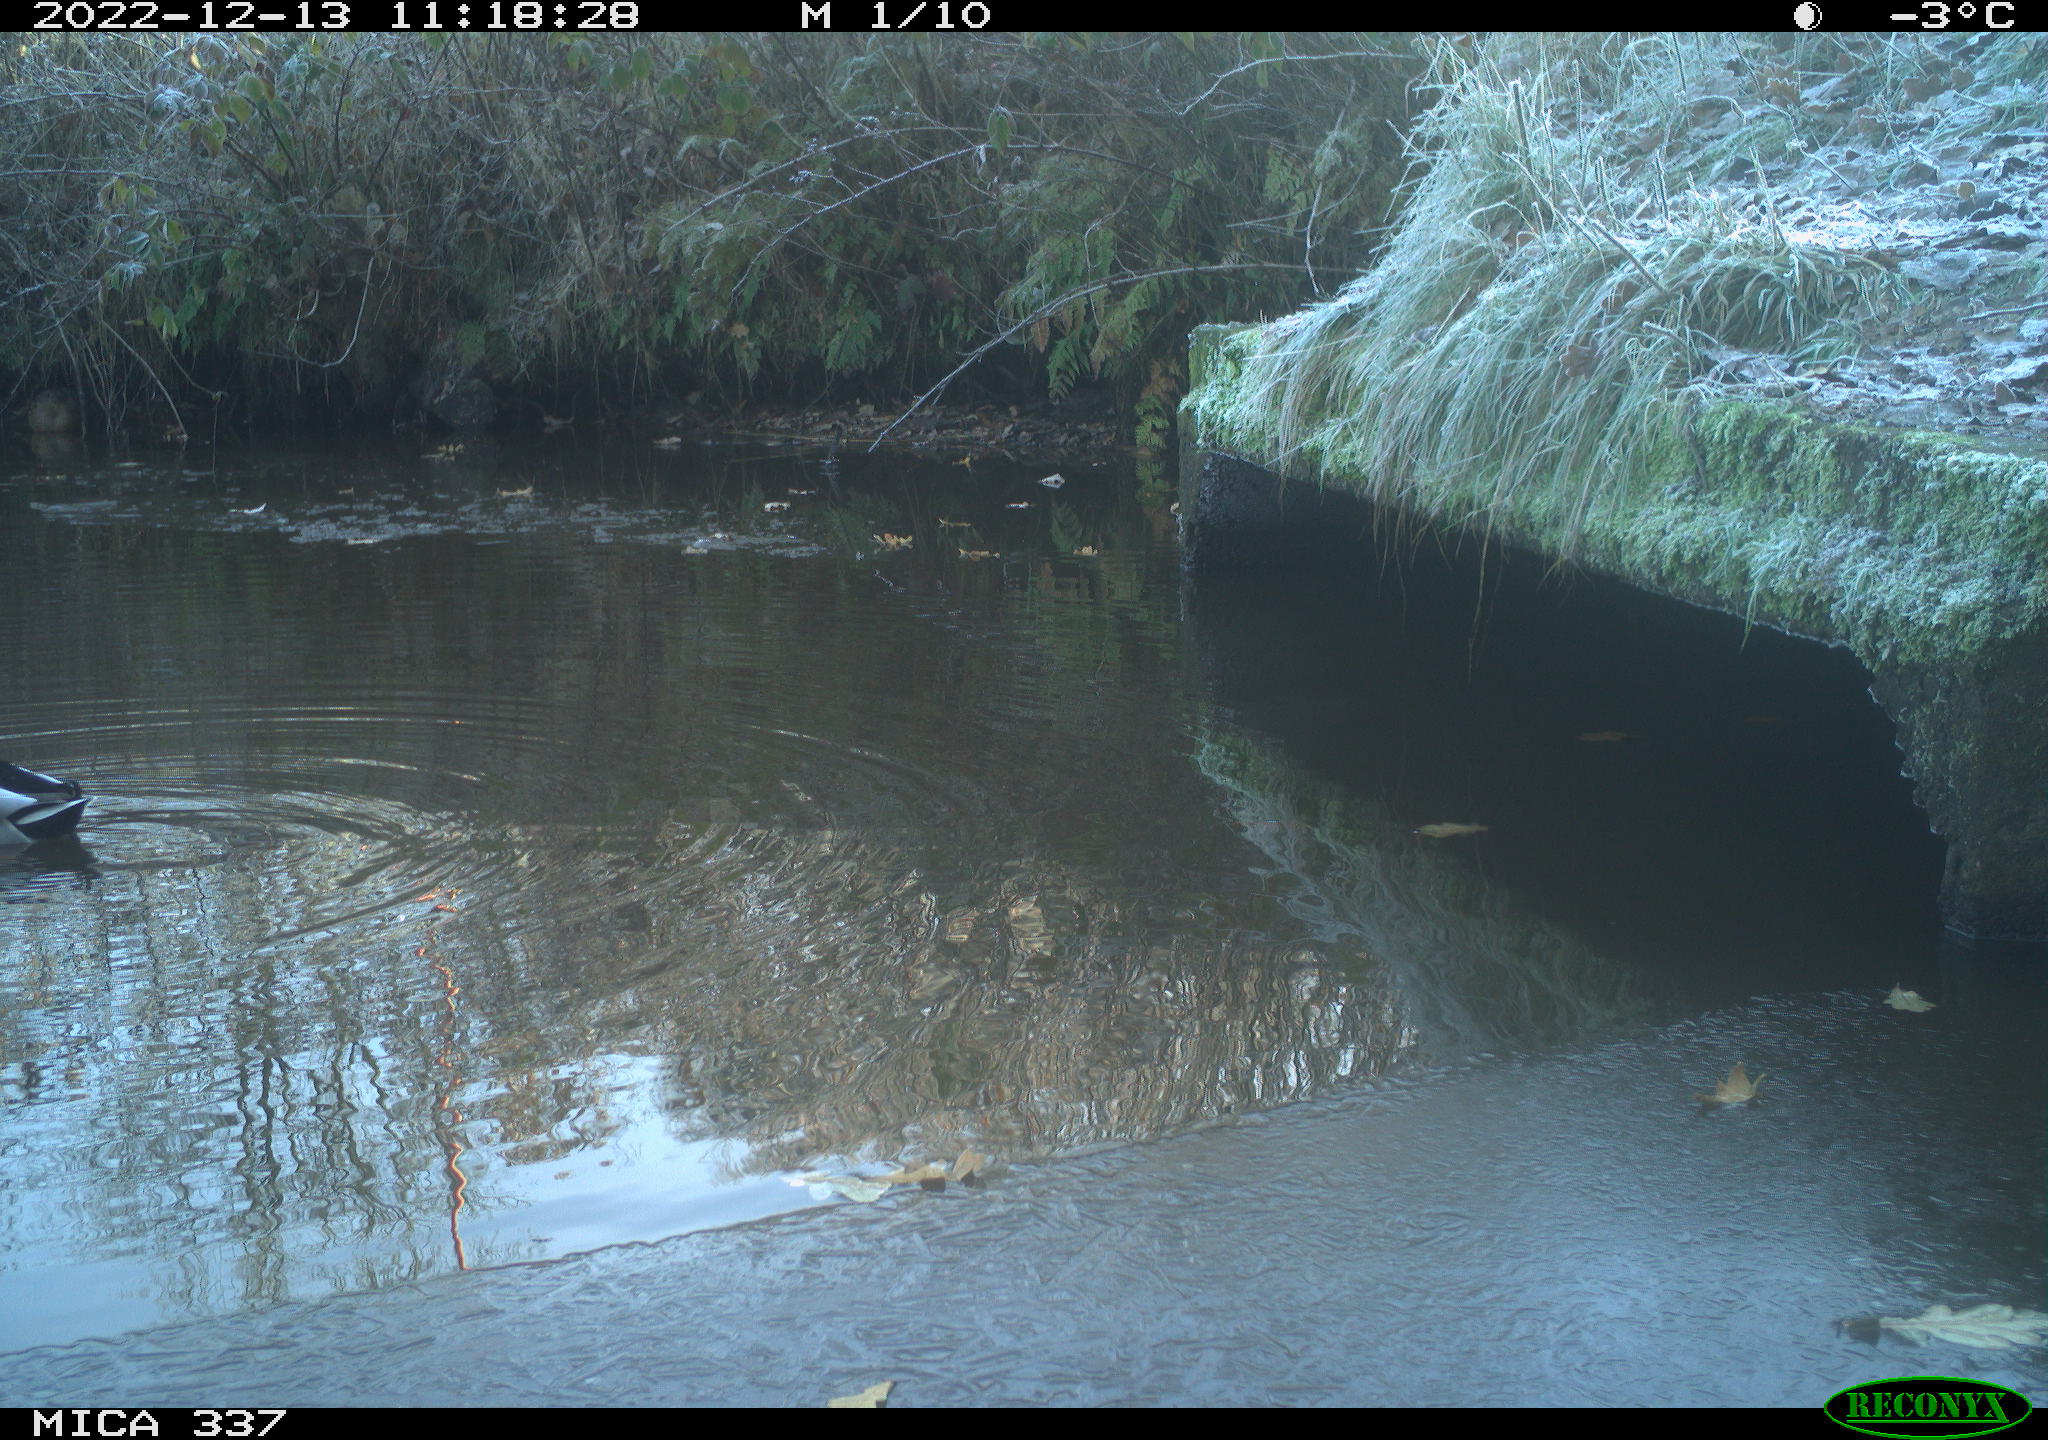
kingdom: Animalia
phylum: Chordata
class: Aves
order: Anseriformes
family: Anatidae
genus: Anas
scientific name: Anas platyrhynchos
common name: Mallard
